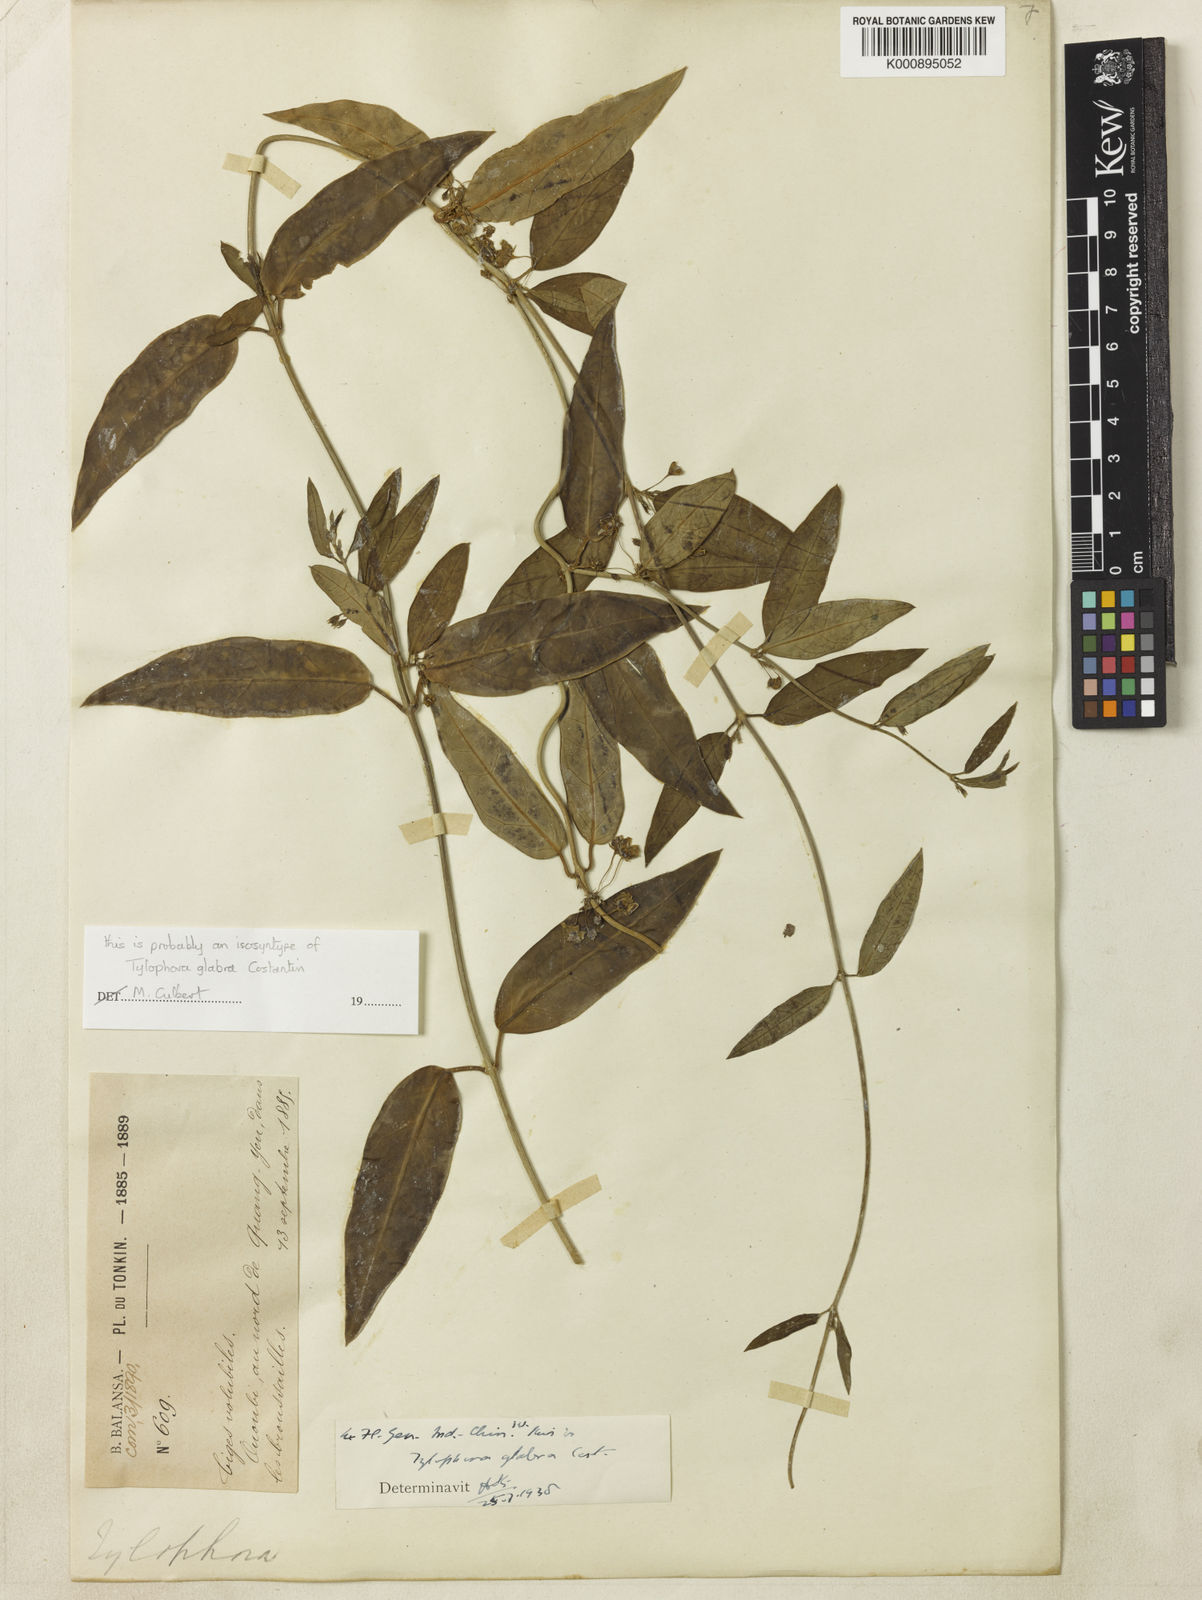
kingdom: Plantae
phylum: Tracheophyta
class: Magnoliopsida
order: Gentianales
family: Apocynaceae
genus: Vincetoxicum
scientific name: Vincetoxicum renchangii
